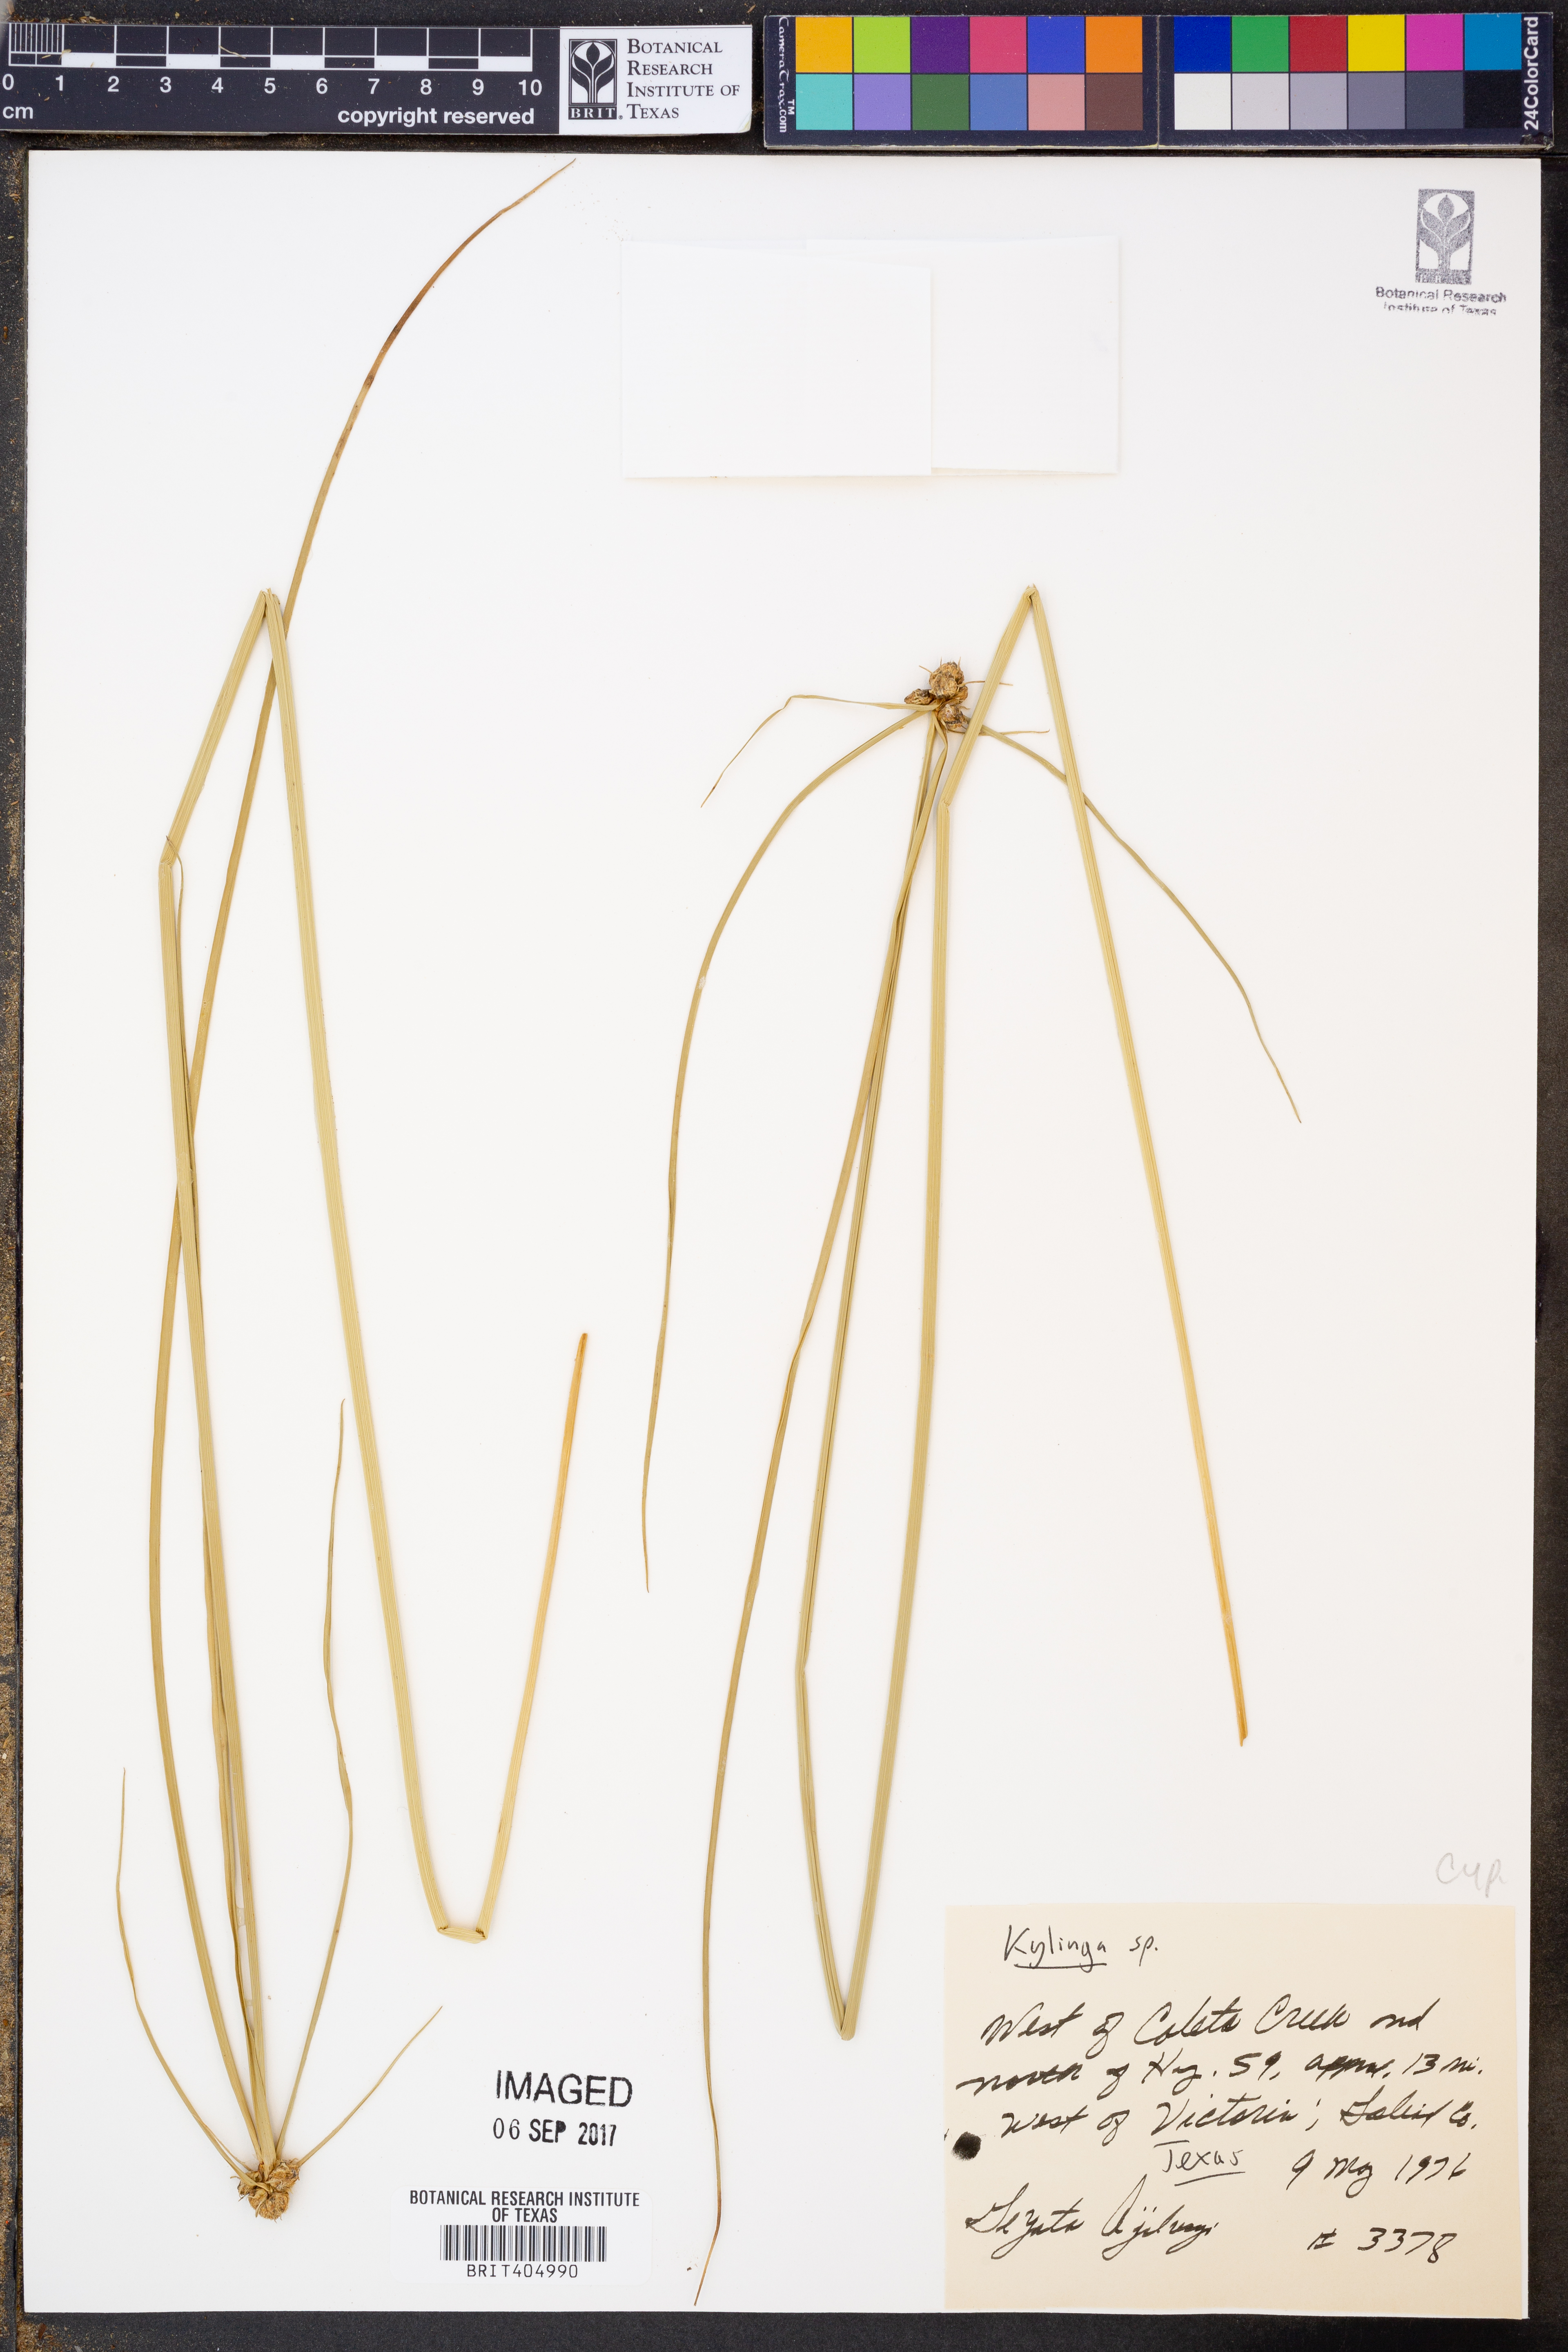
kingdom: Plantae
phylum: Tracheophyta
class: Liliopsida
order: Poales
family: Cyperaceae
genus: Cyperus
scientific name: Cyperus
